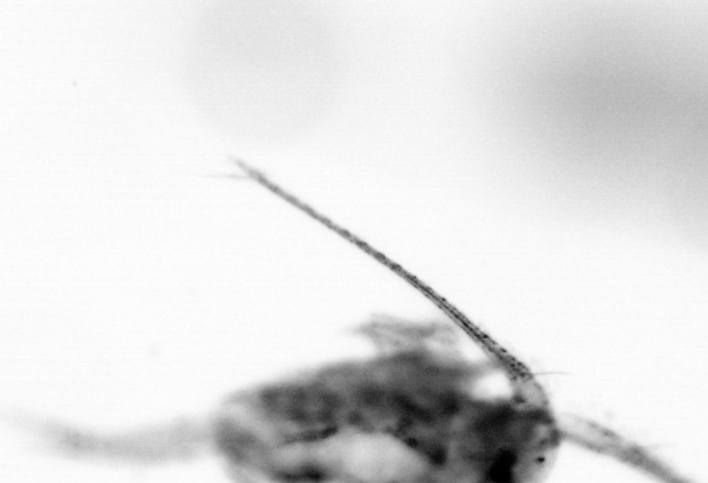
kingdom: Animalia
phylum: Arthropoda
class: Copepoda
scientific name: Copepoda
